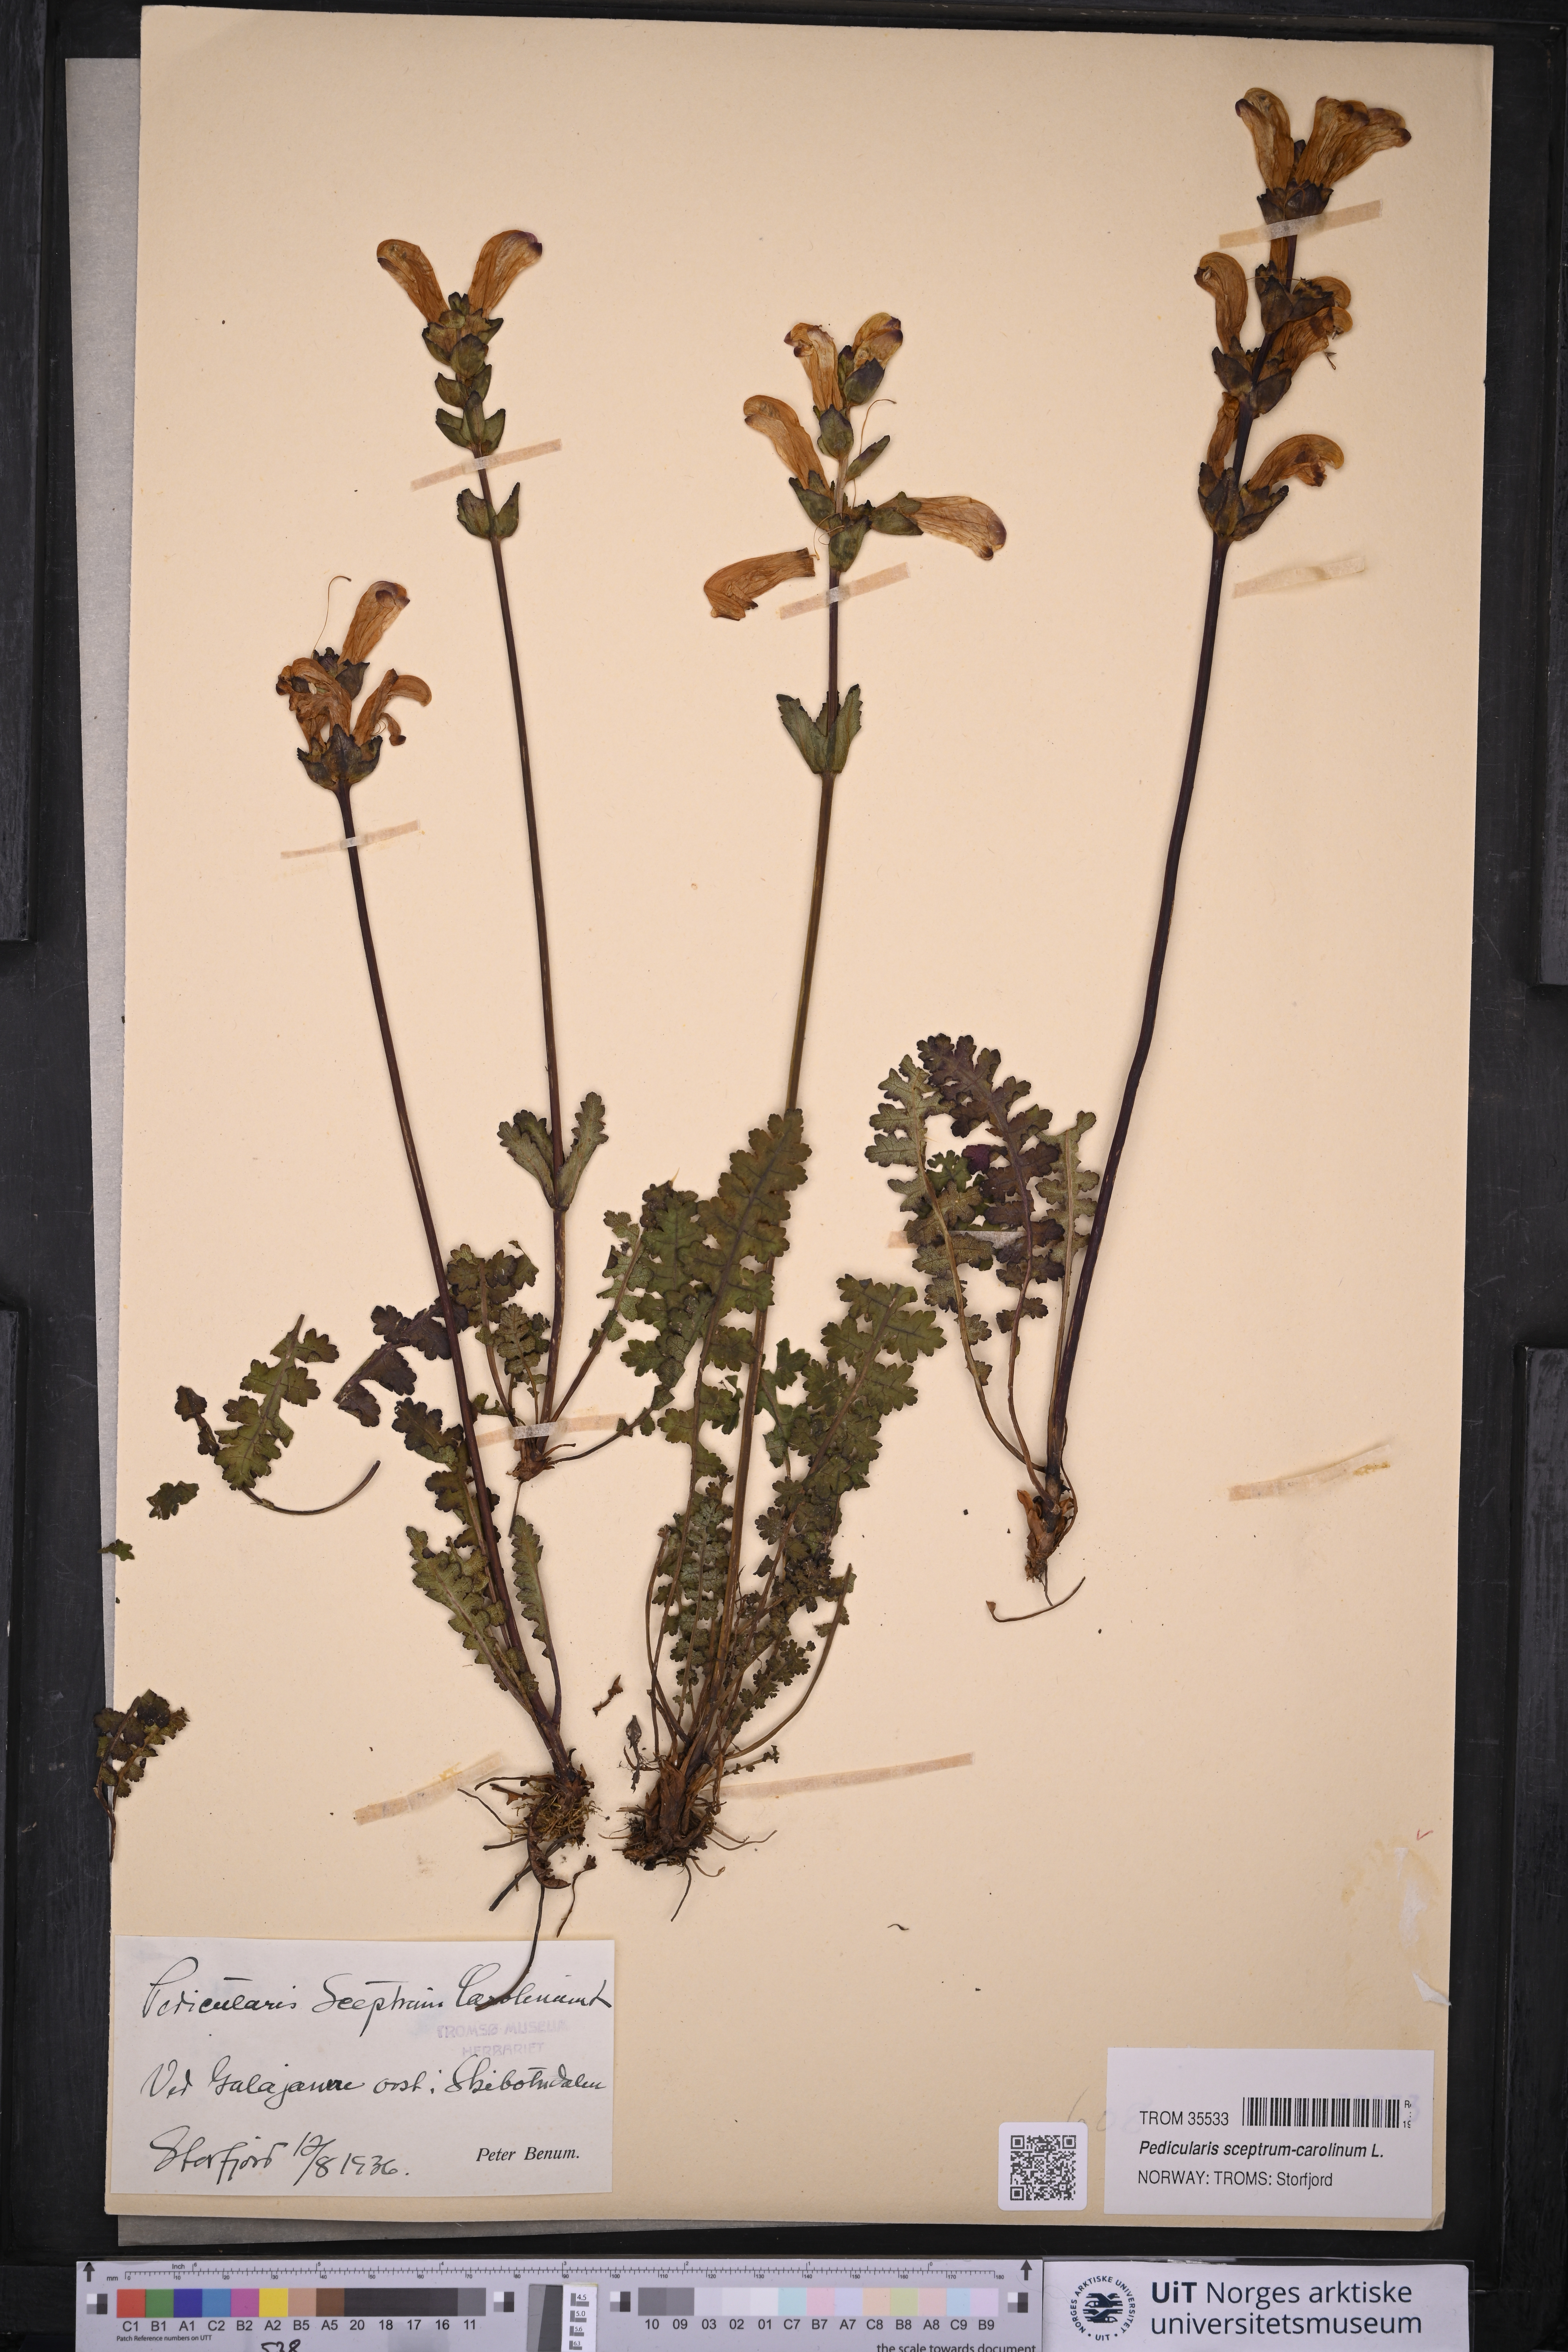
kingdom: Plantae
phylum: Tracheophyta
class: Magnoliopsida
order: Lamiales
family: Orobanchaceae
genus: Pedicularis
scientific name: Pedicularis sceptrum-carolinum
